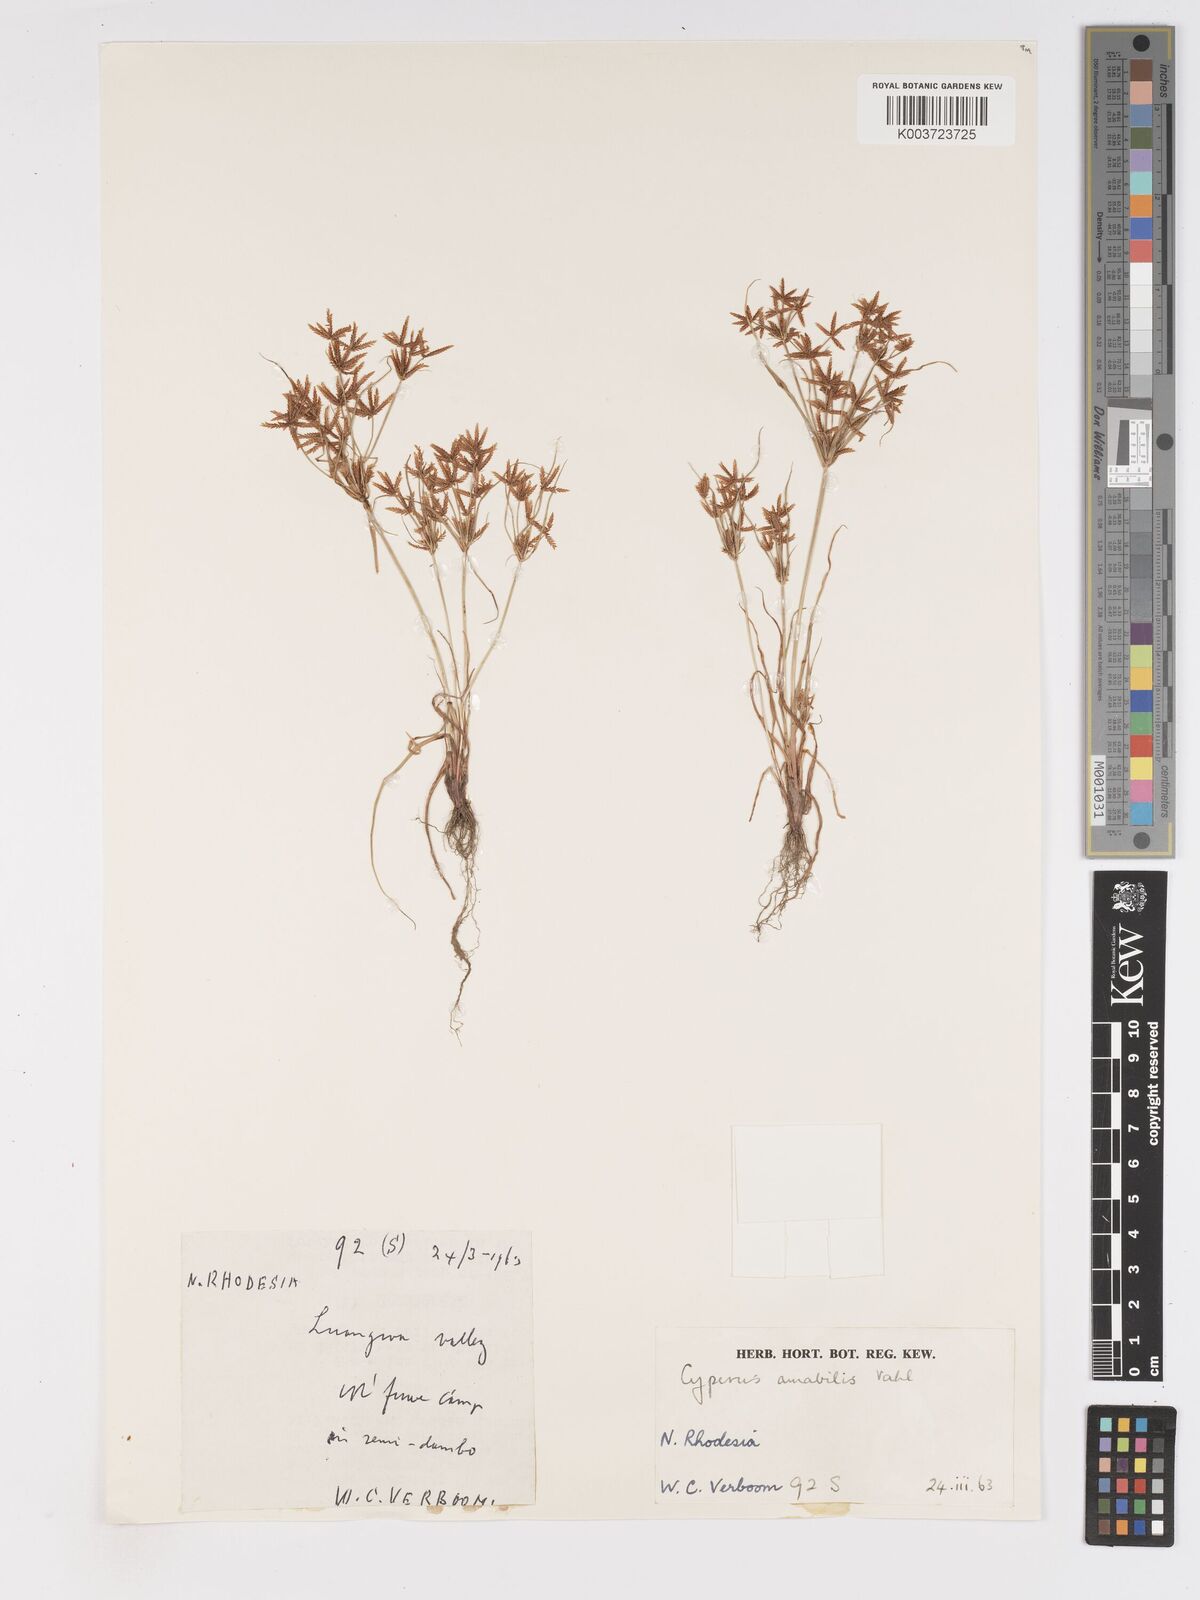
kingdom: Plantae
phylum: Tracheophyta
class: Liliopsida
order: Poales
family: Cyperaceae
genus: Cyperus
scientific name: Cyperus amabilis
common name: Foothill flat sedge
